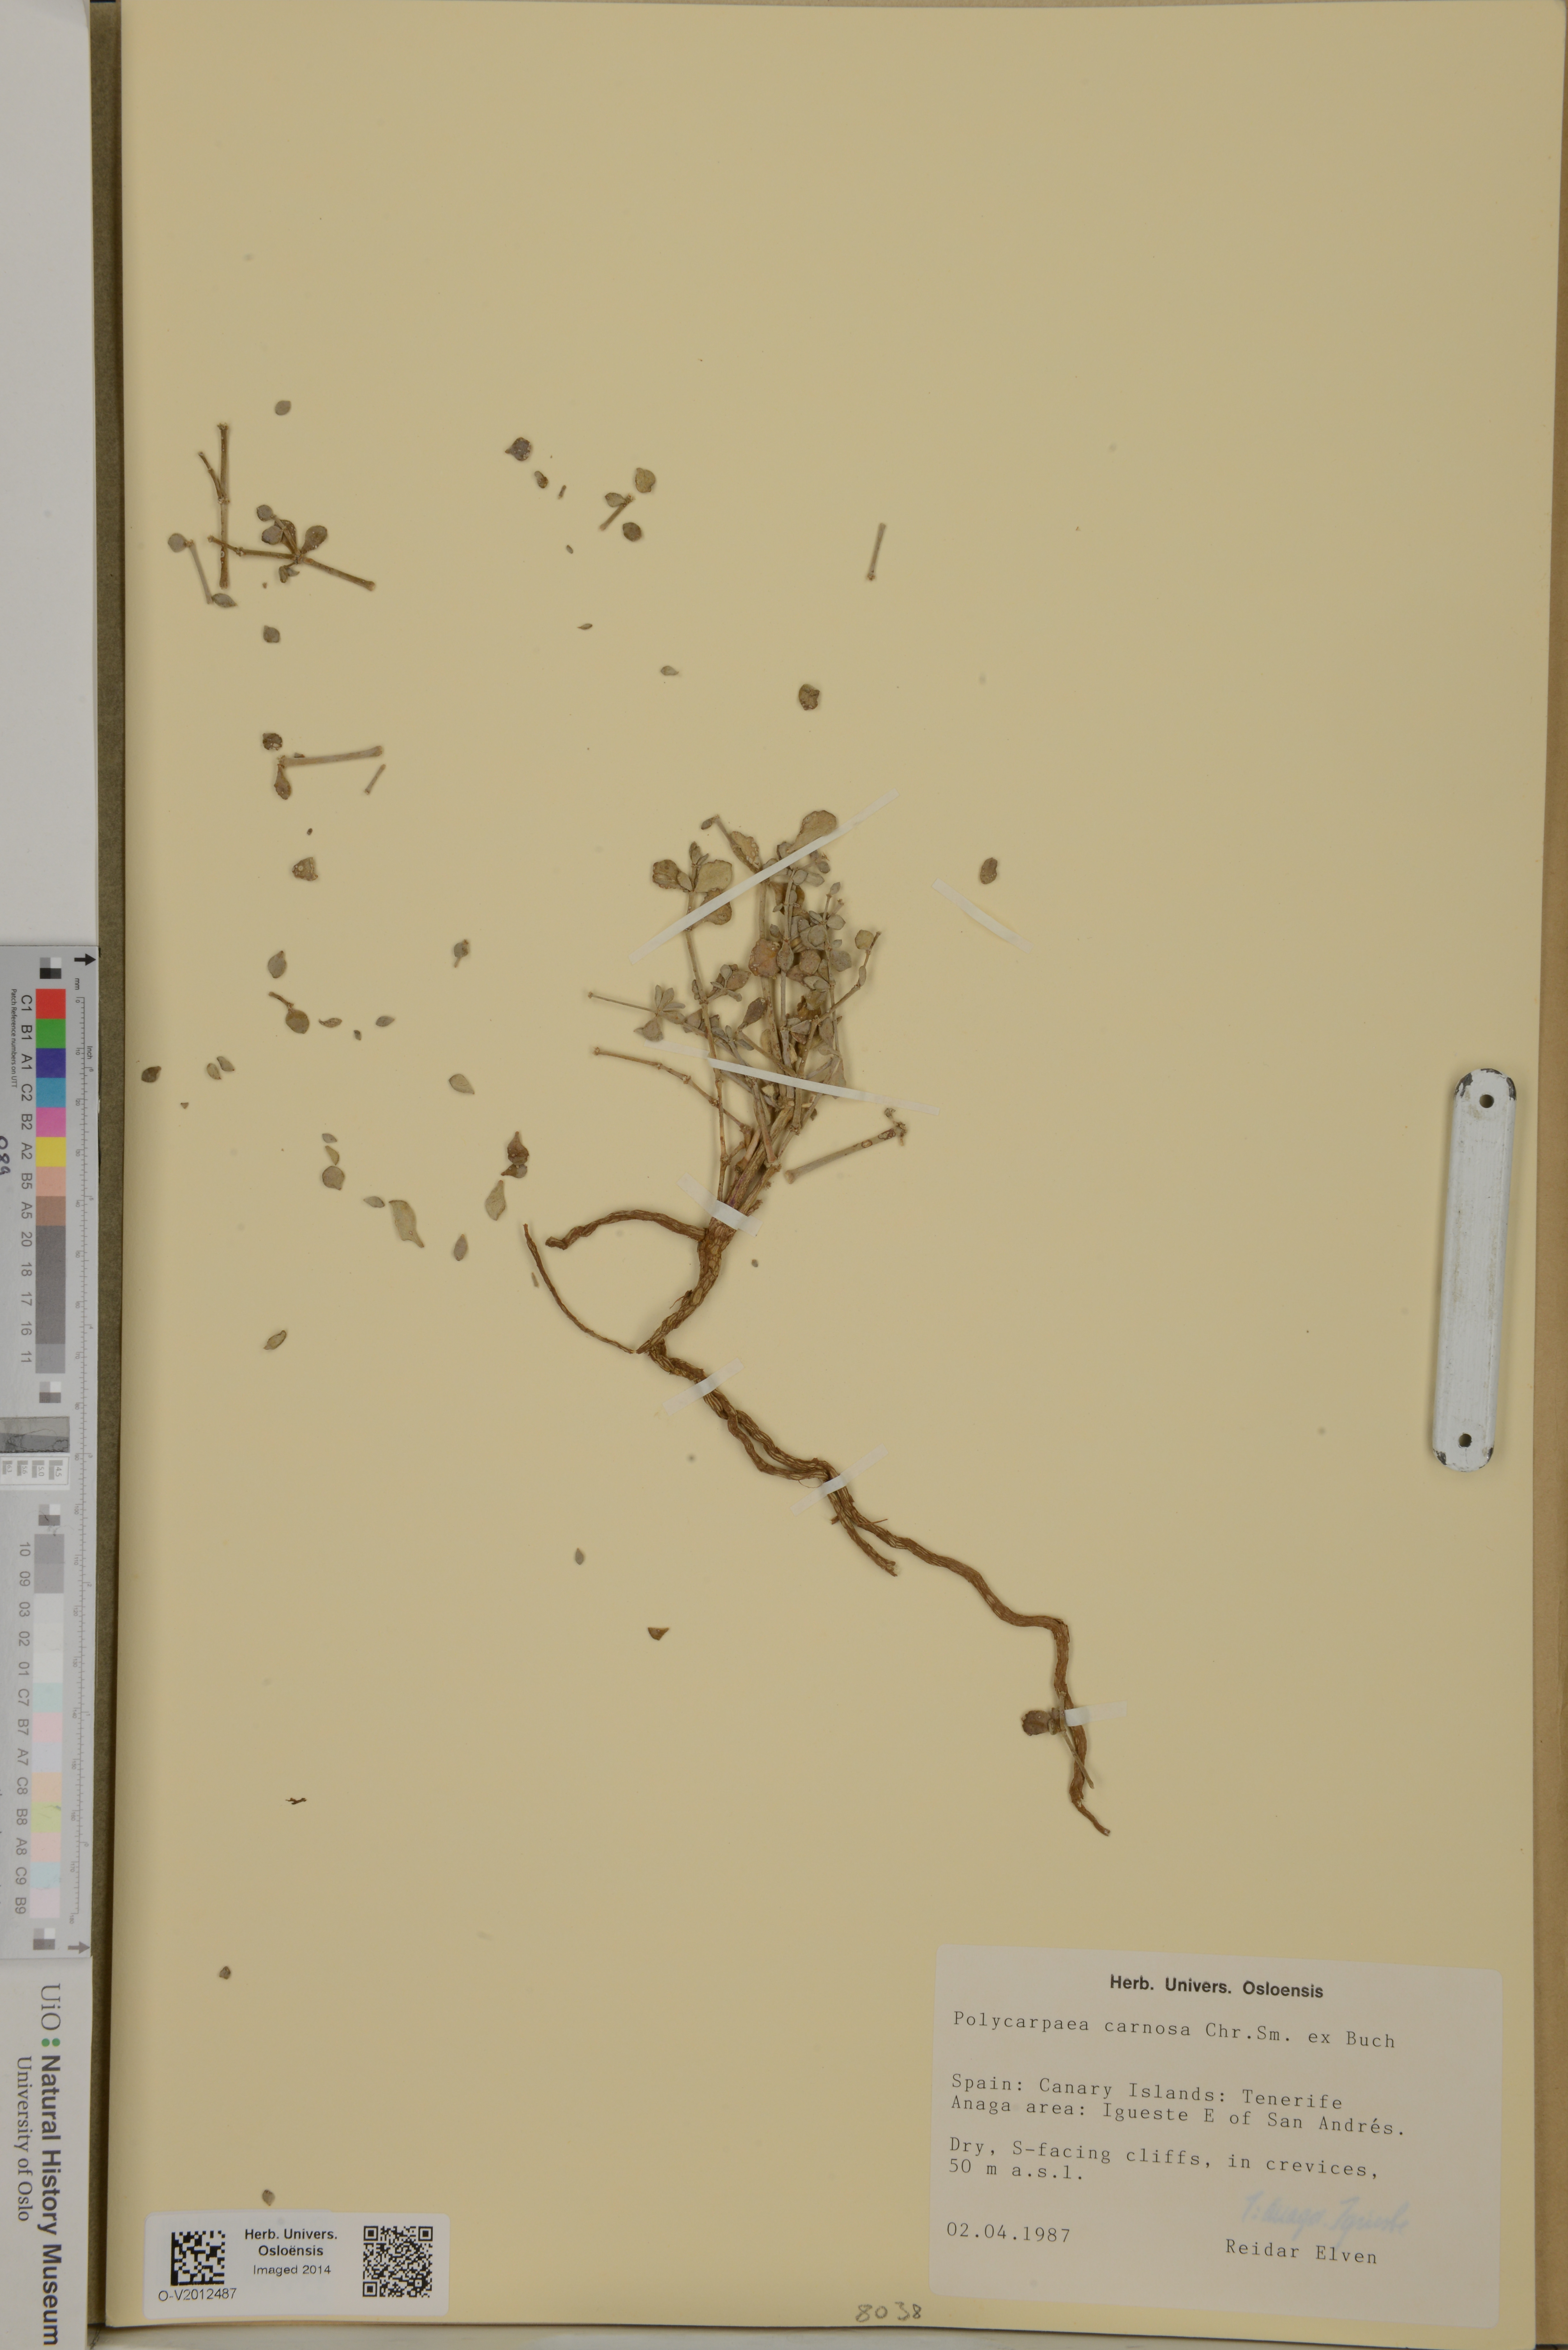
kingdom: Plantae
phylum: Tracheophyta
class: Magnoliopsida
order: Caryophyllales
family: Caryophyllaceae
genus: Polycarpaea
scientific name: Polycarpaea carnosa
